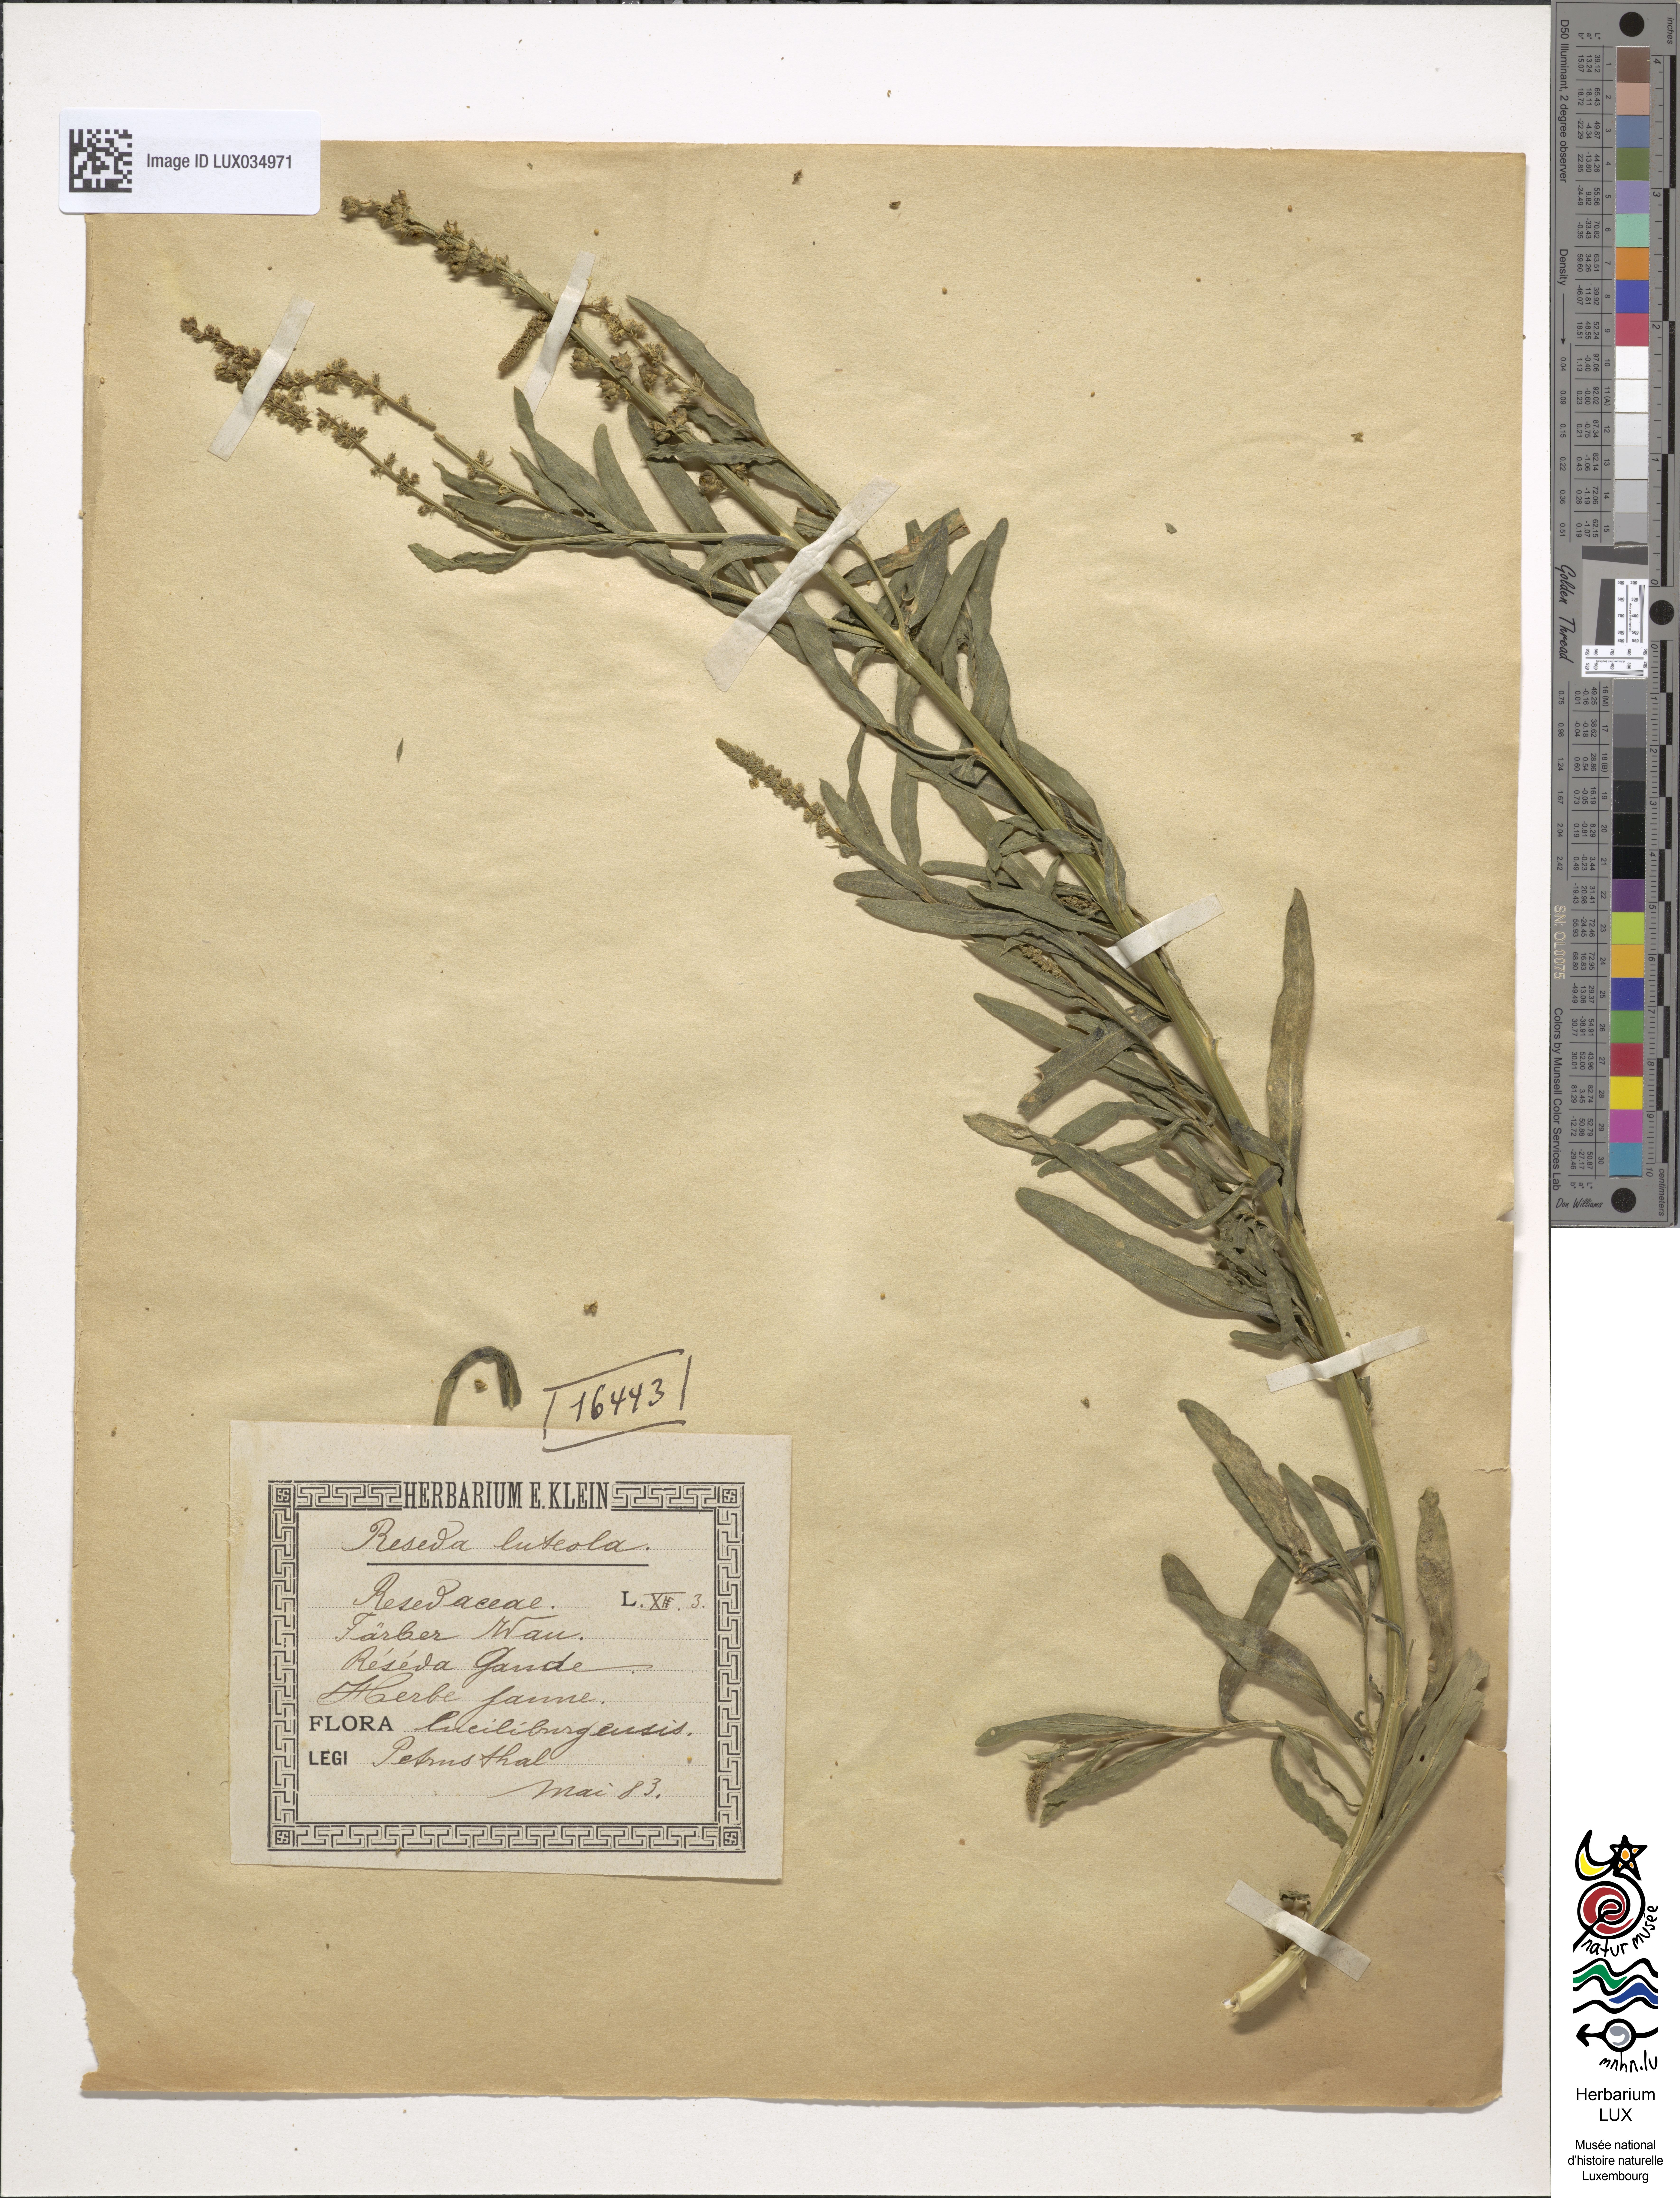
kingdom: Plantae
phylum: Tracheophyta
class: Magnoliopsida
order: Brassicales
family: Resedaceae
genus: Reseda
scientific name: Reseda luteola
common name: Weld
